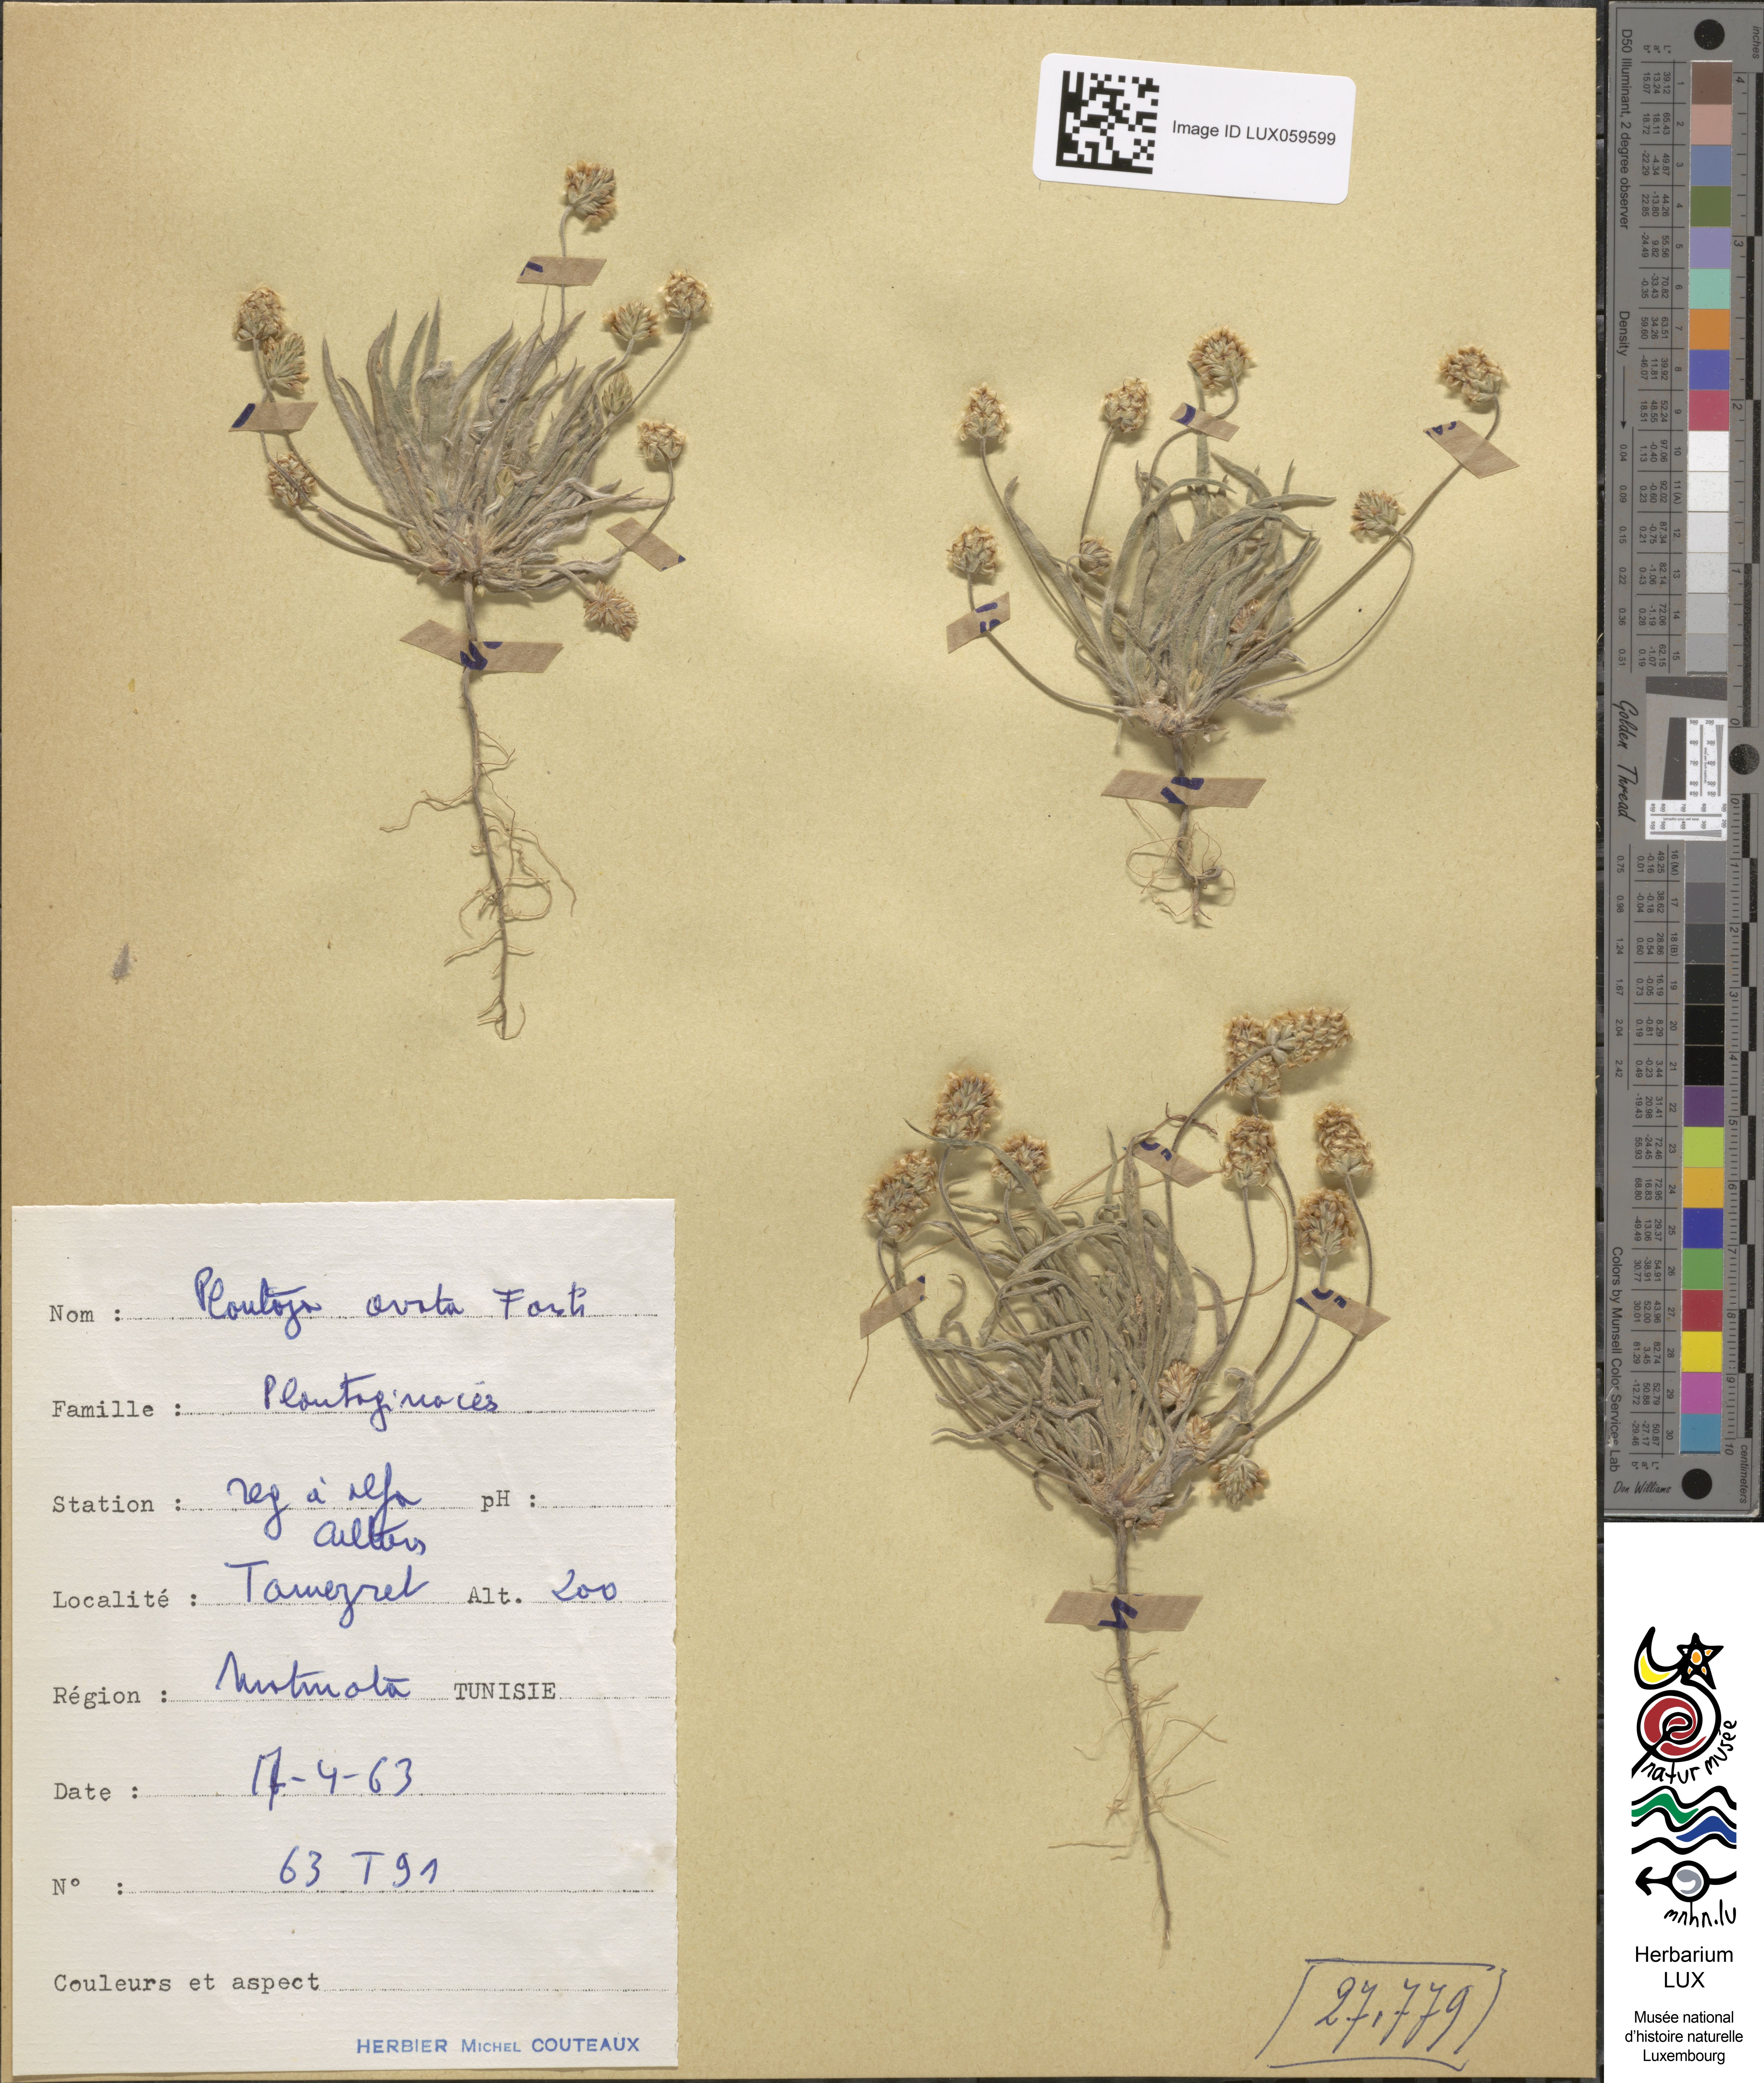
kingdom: Plantae
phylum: Tracheophyta
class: Magnoliopsida
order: Lamiales
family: Plantaginaceae
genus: Plantago
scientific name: Plantago ovata
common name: Blond plantain
